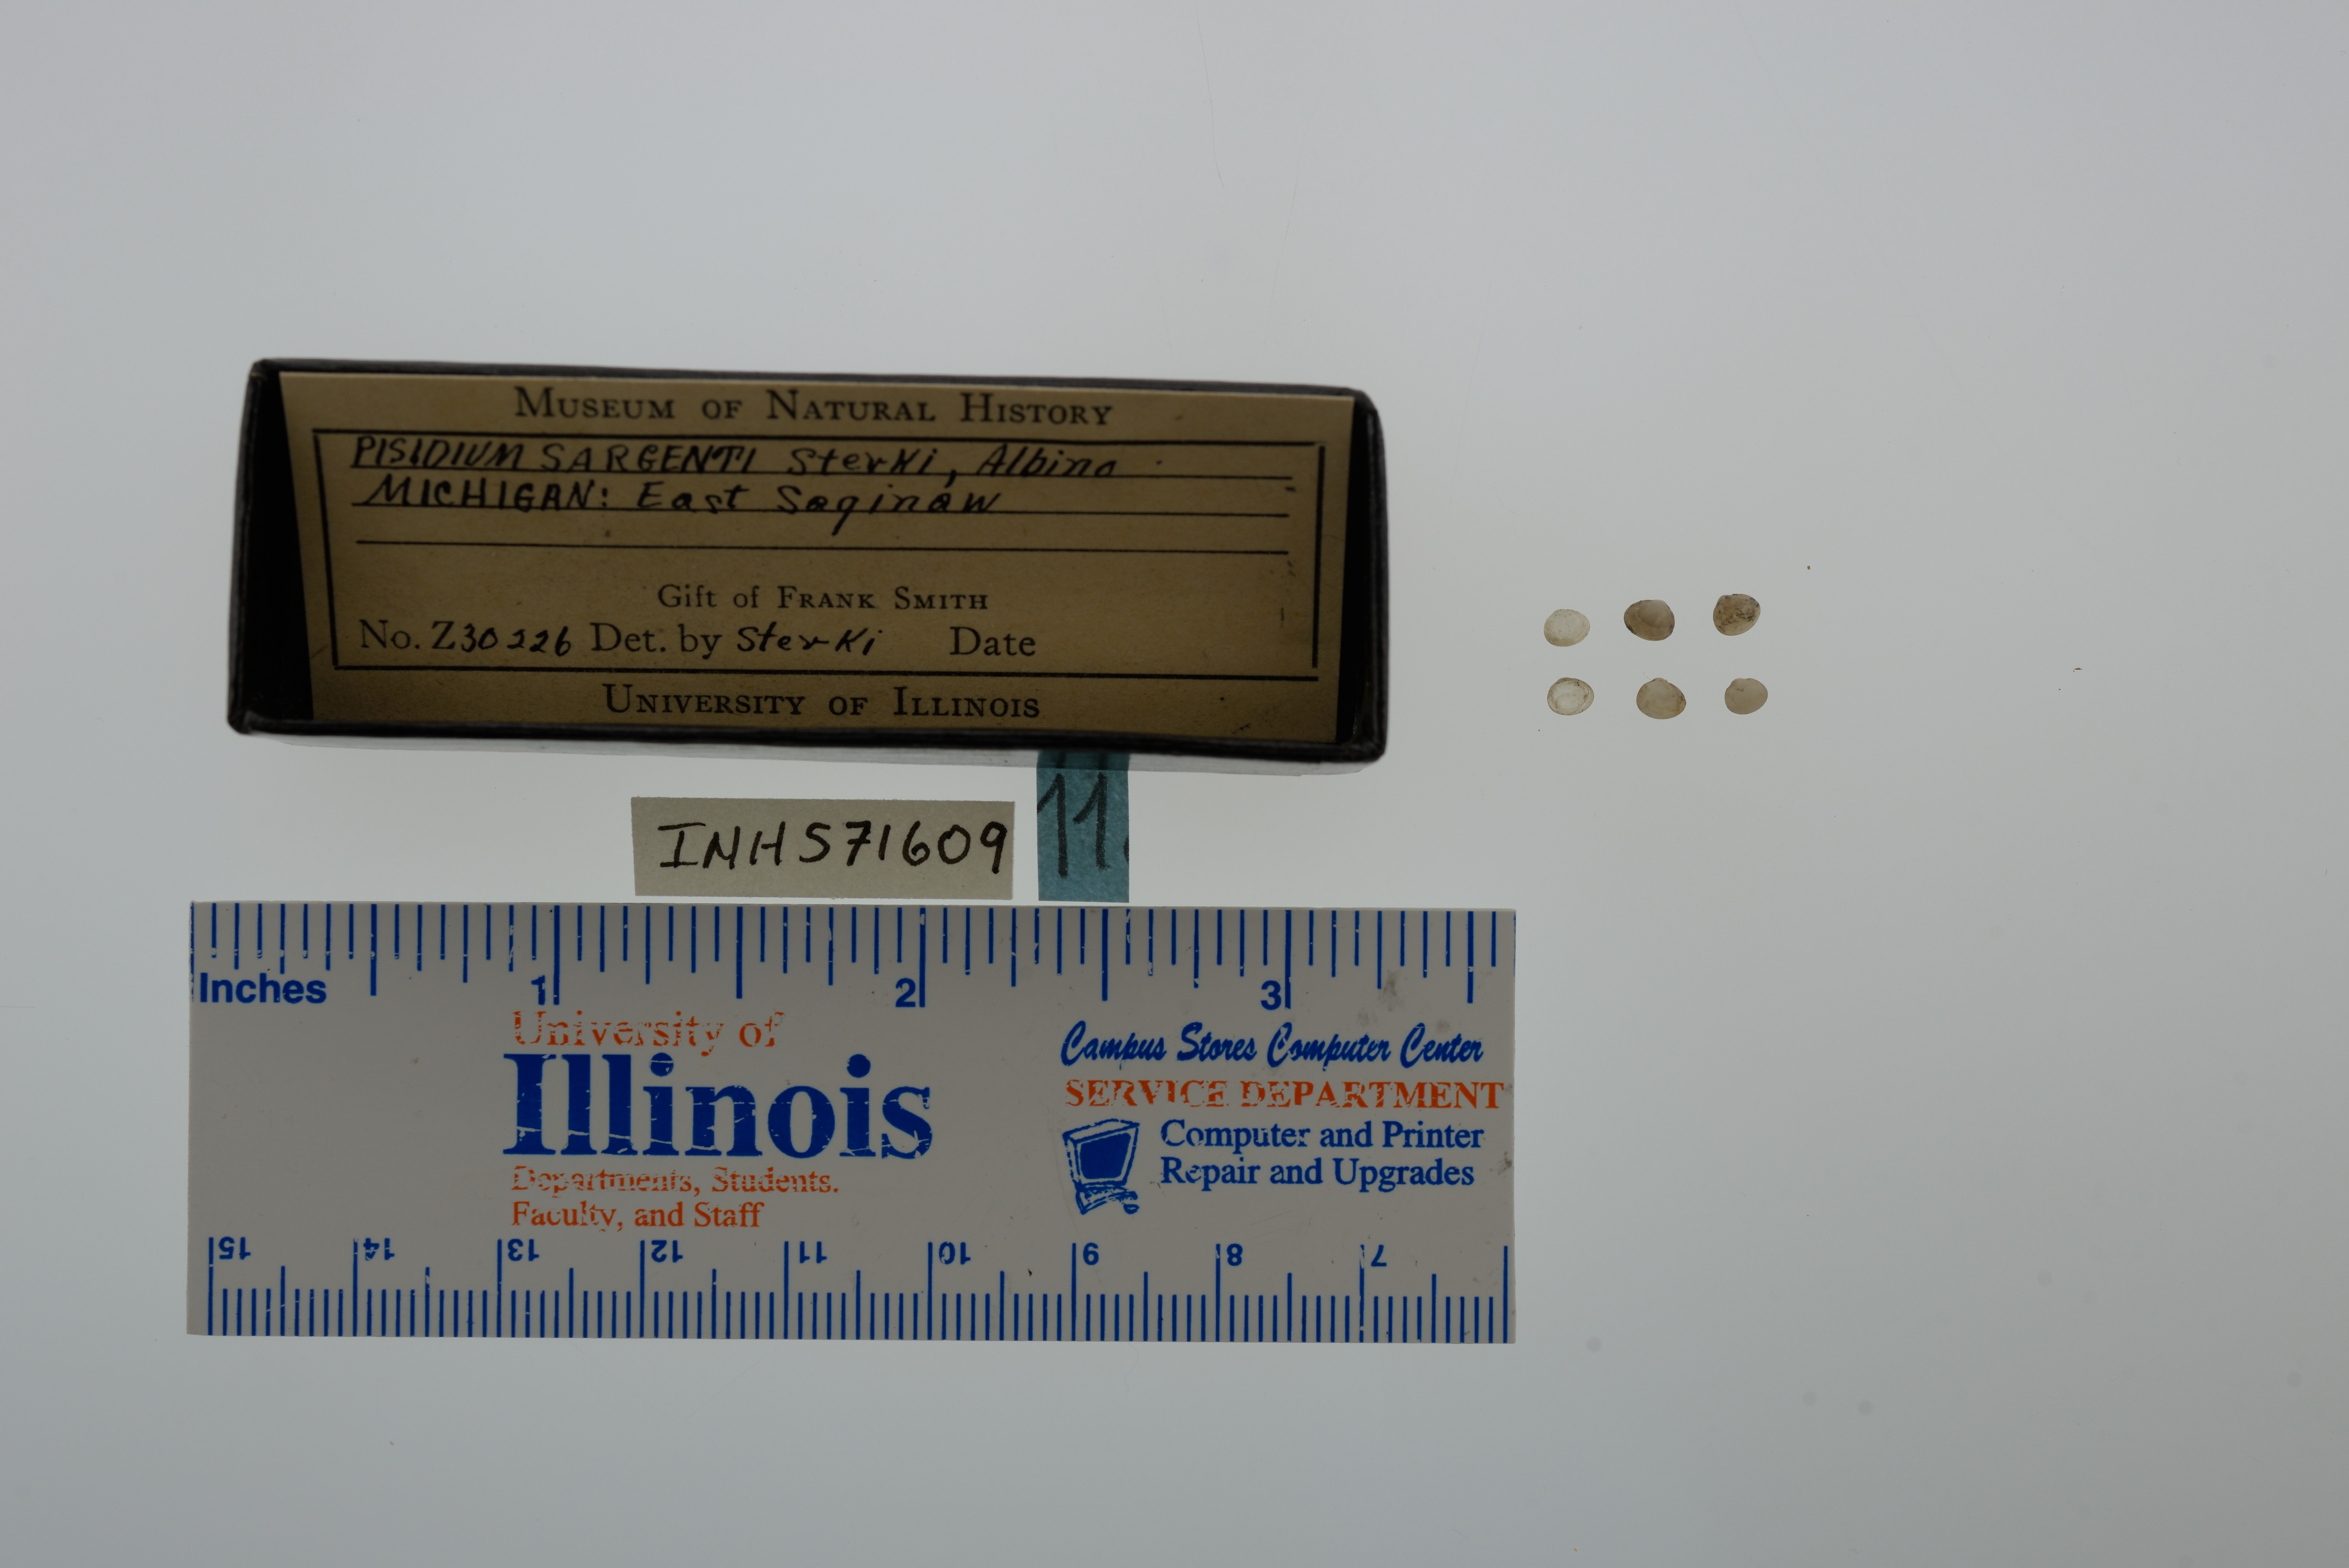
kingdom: Animalia
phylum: Mollusca
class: Bivalvia
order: Sphaeriida
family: Sphaeriidae
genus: Euglesa
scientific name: Euglesa adamsii
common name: Adam peaclam
